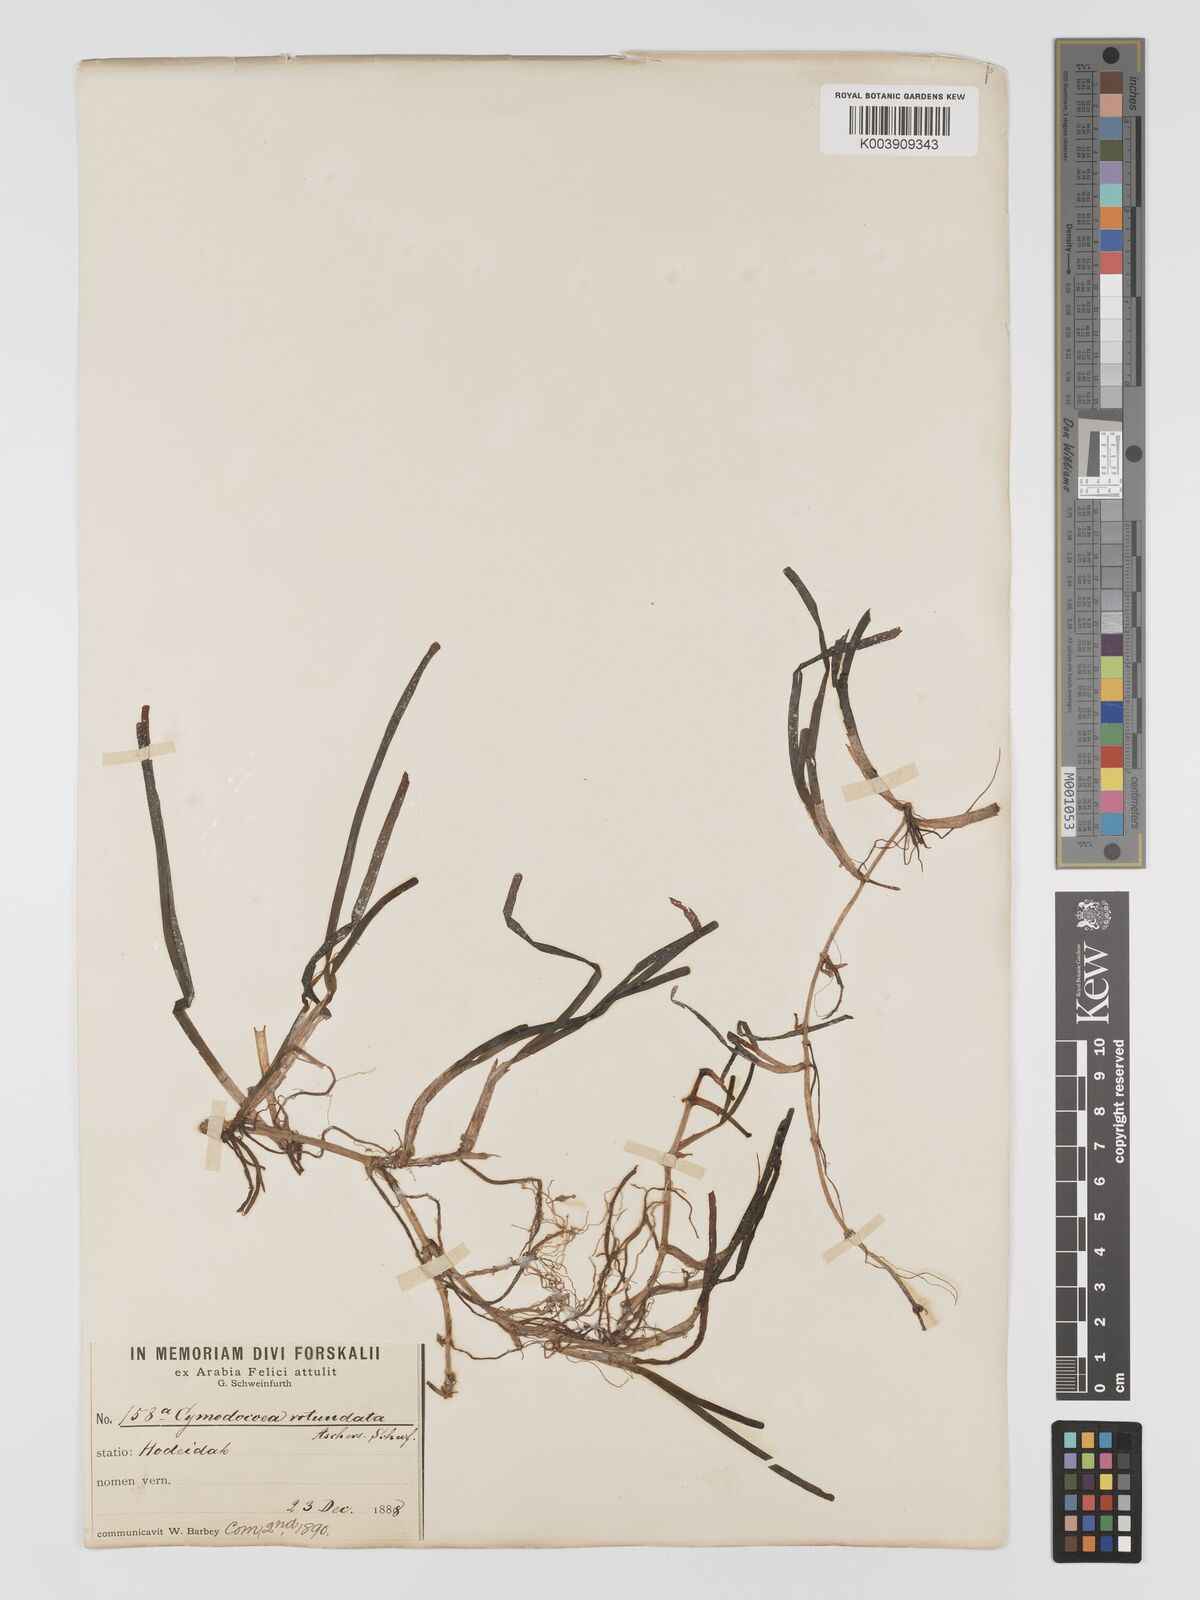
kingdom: Plantae
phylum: Tracheophyta
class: Liliopsida
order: Alismatales
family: Cymodoceaceae
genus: Cymodocea
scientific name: Cymodocea rotundata
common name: Species code: cr
